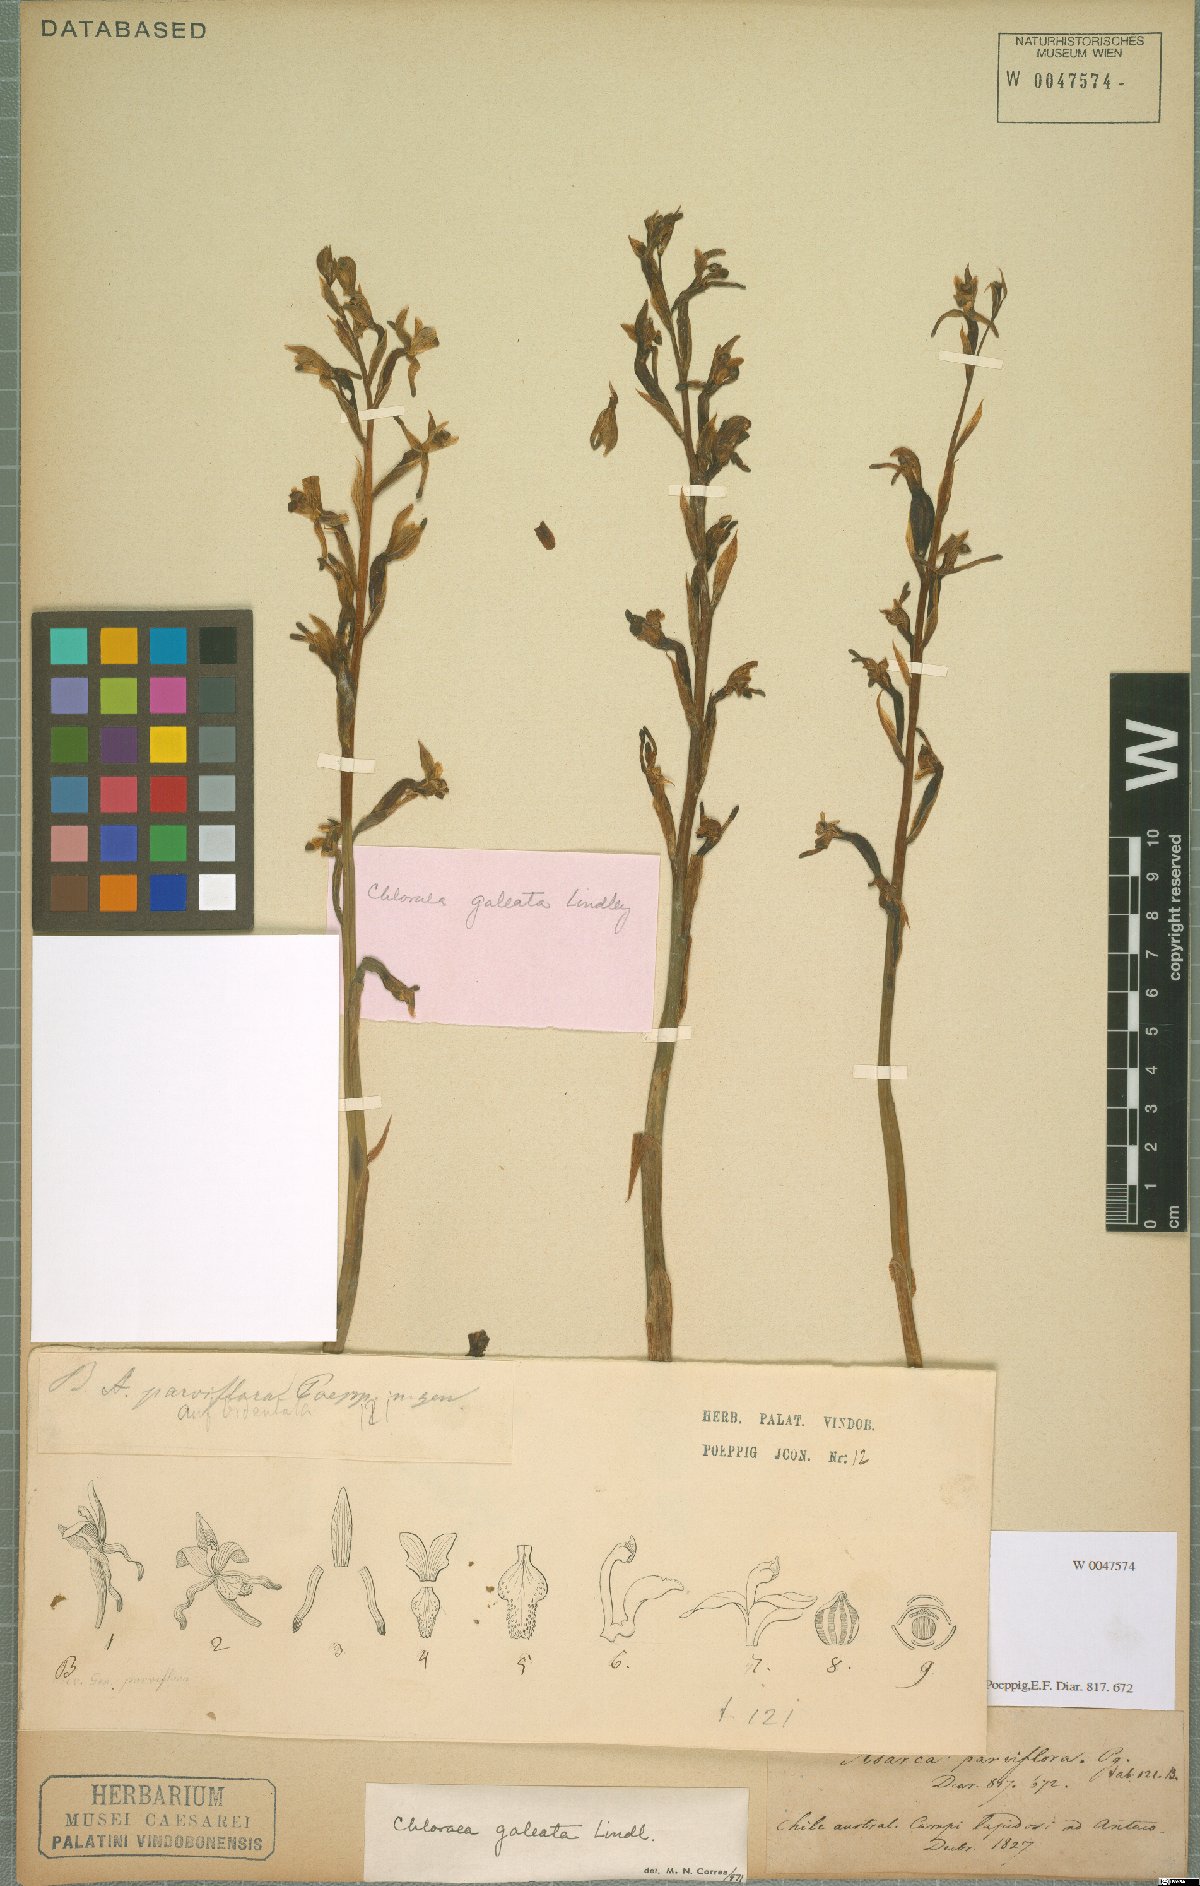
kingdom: Plantae
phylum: Tracheophyta
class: Liliopsida
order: Asparagales
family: Orchidaceae
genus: Chloraea
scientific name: Chloraea galeata
